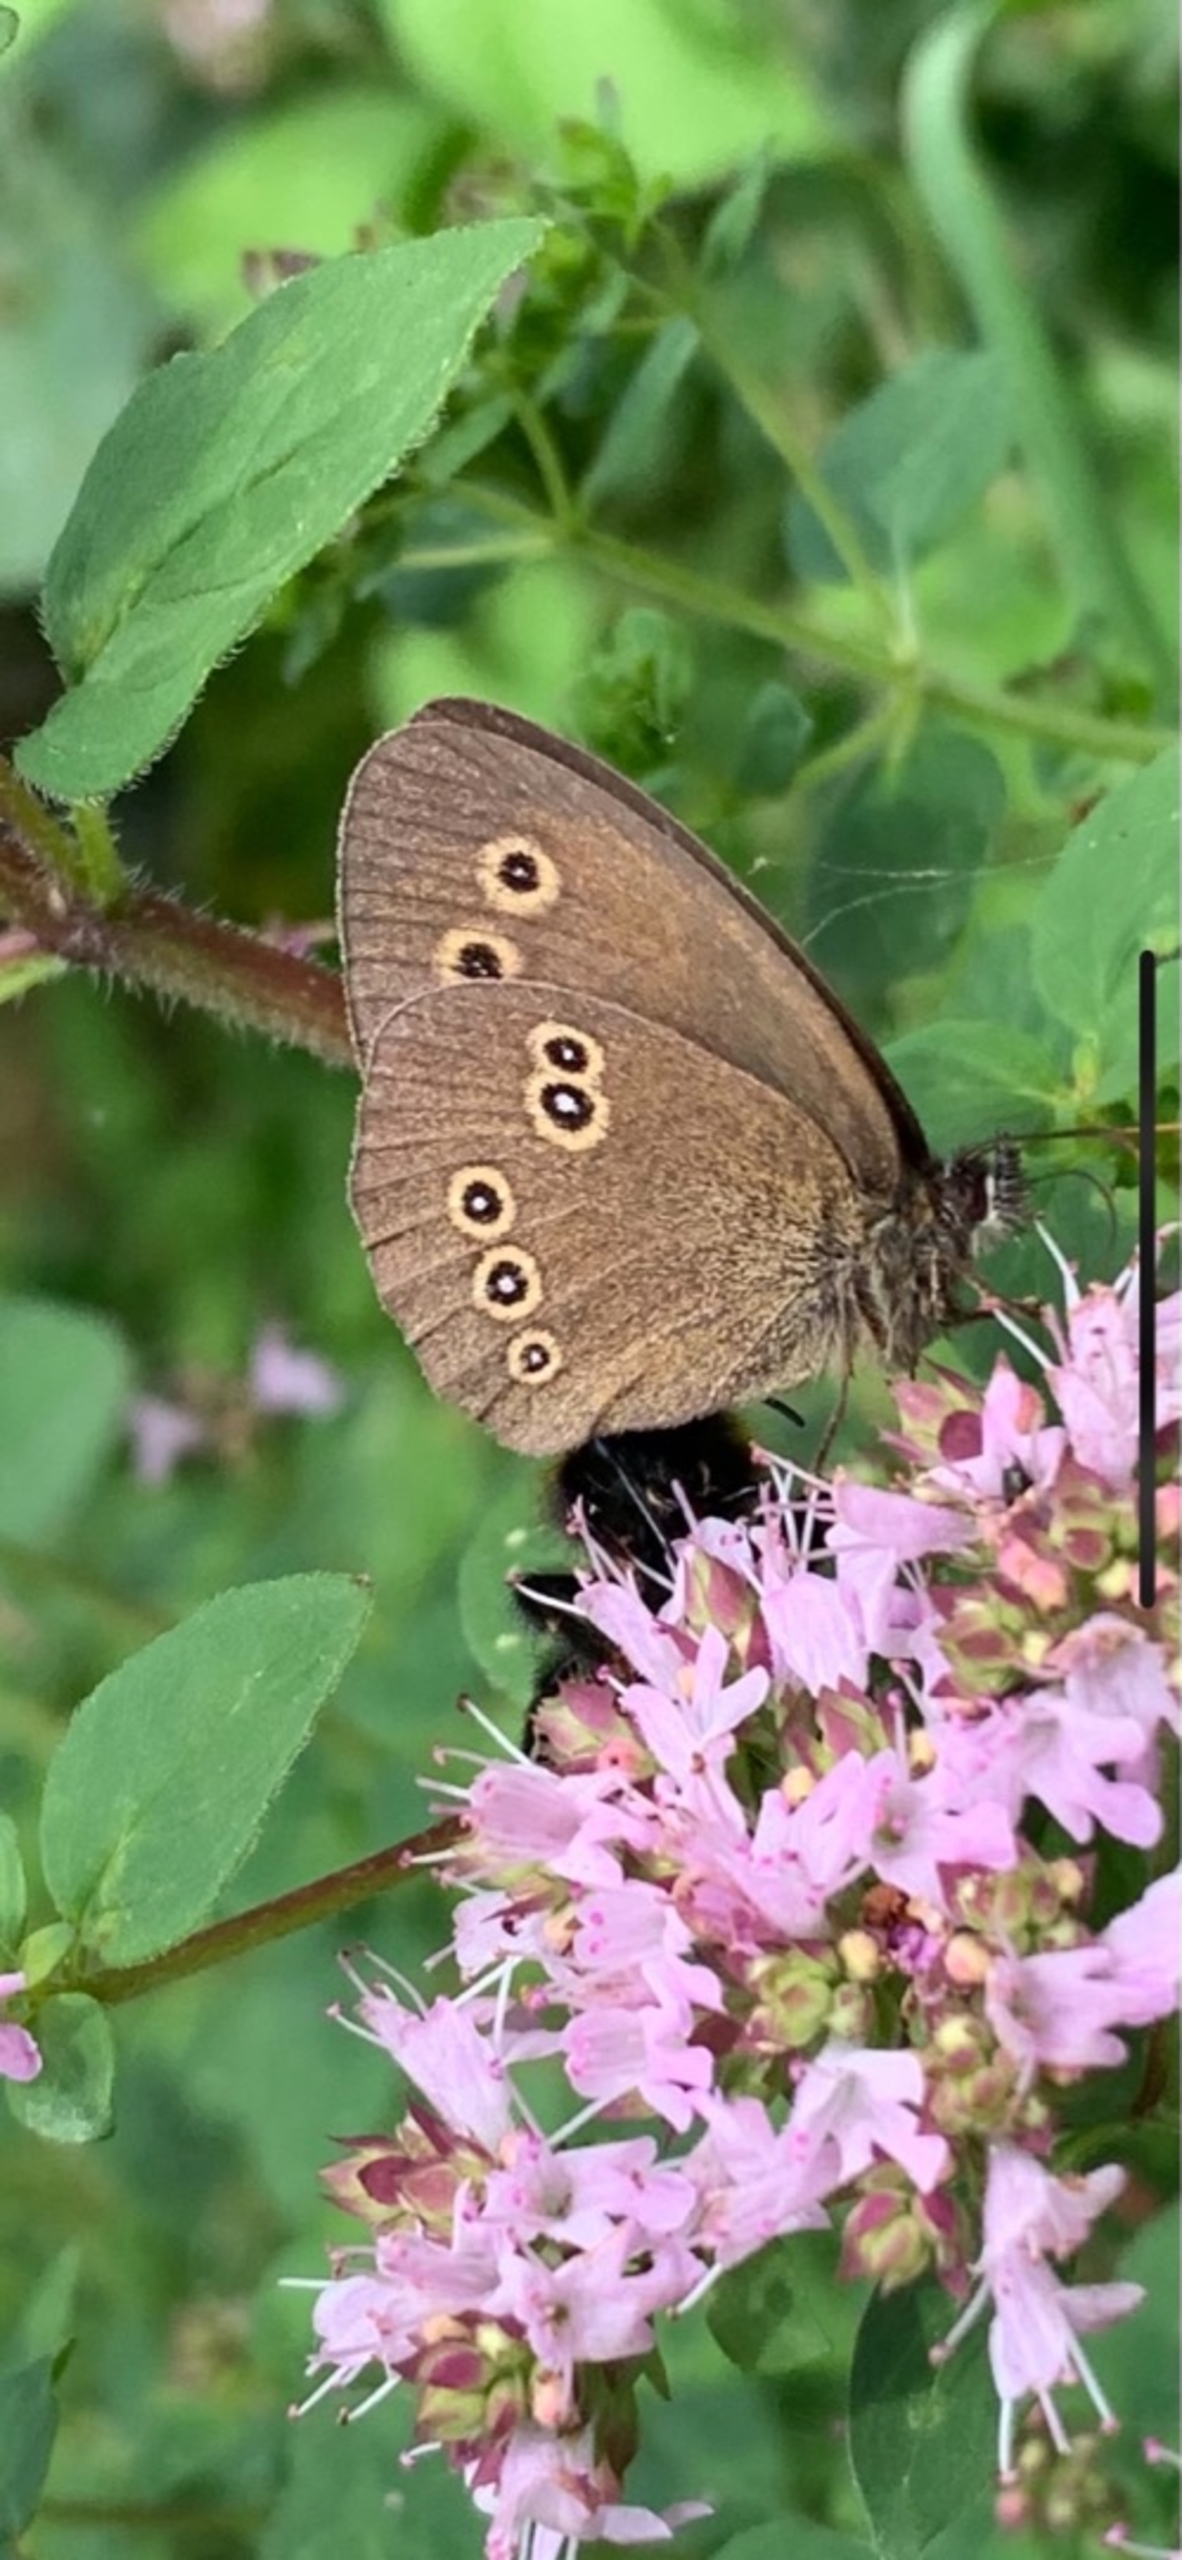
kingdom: Animalia
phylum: Arthropoda
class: Insecta
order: Lepidoptera
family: Nymphalidae
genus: Aphantopus
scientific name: Aphantopus hyperantus
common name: Engrandøje
